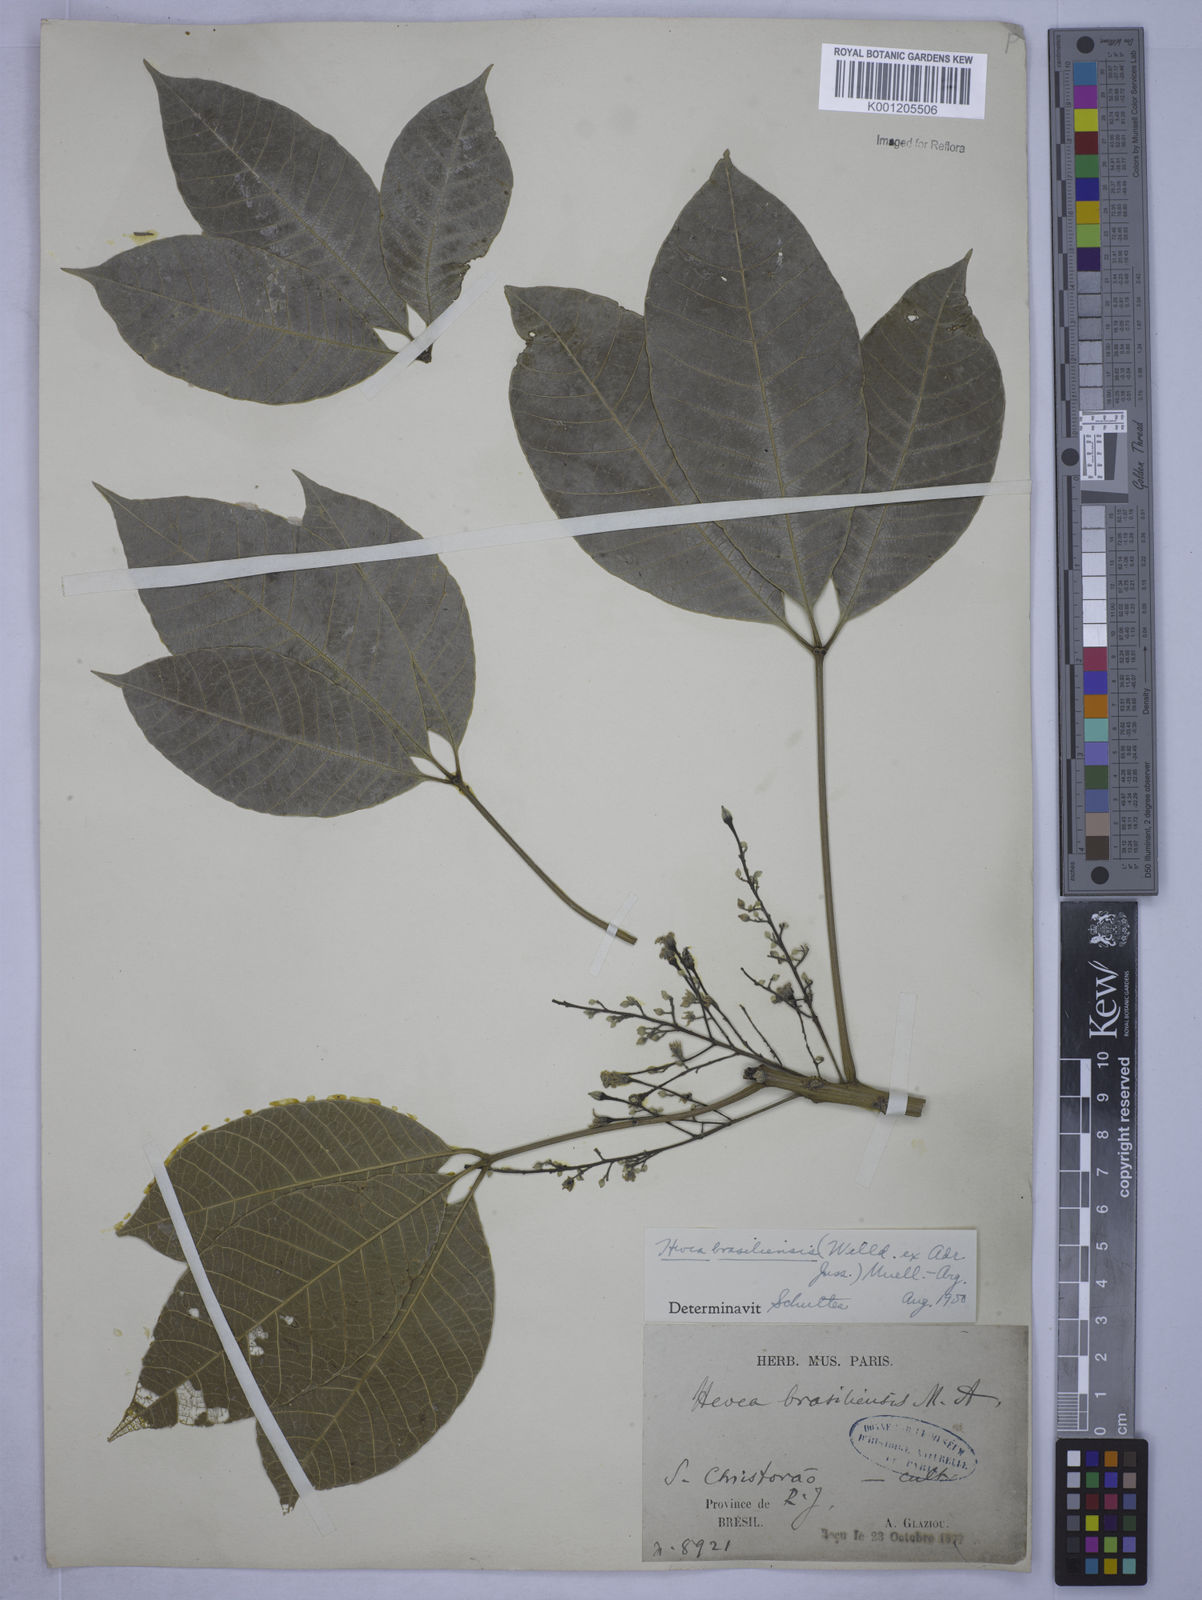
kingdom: Plantae
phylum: Tracheophyta
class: Magnoliopsida
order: Malpighiales
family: Euphorbiaceae
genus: Hevea
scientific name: Hevea
